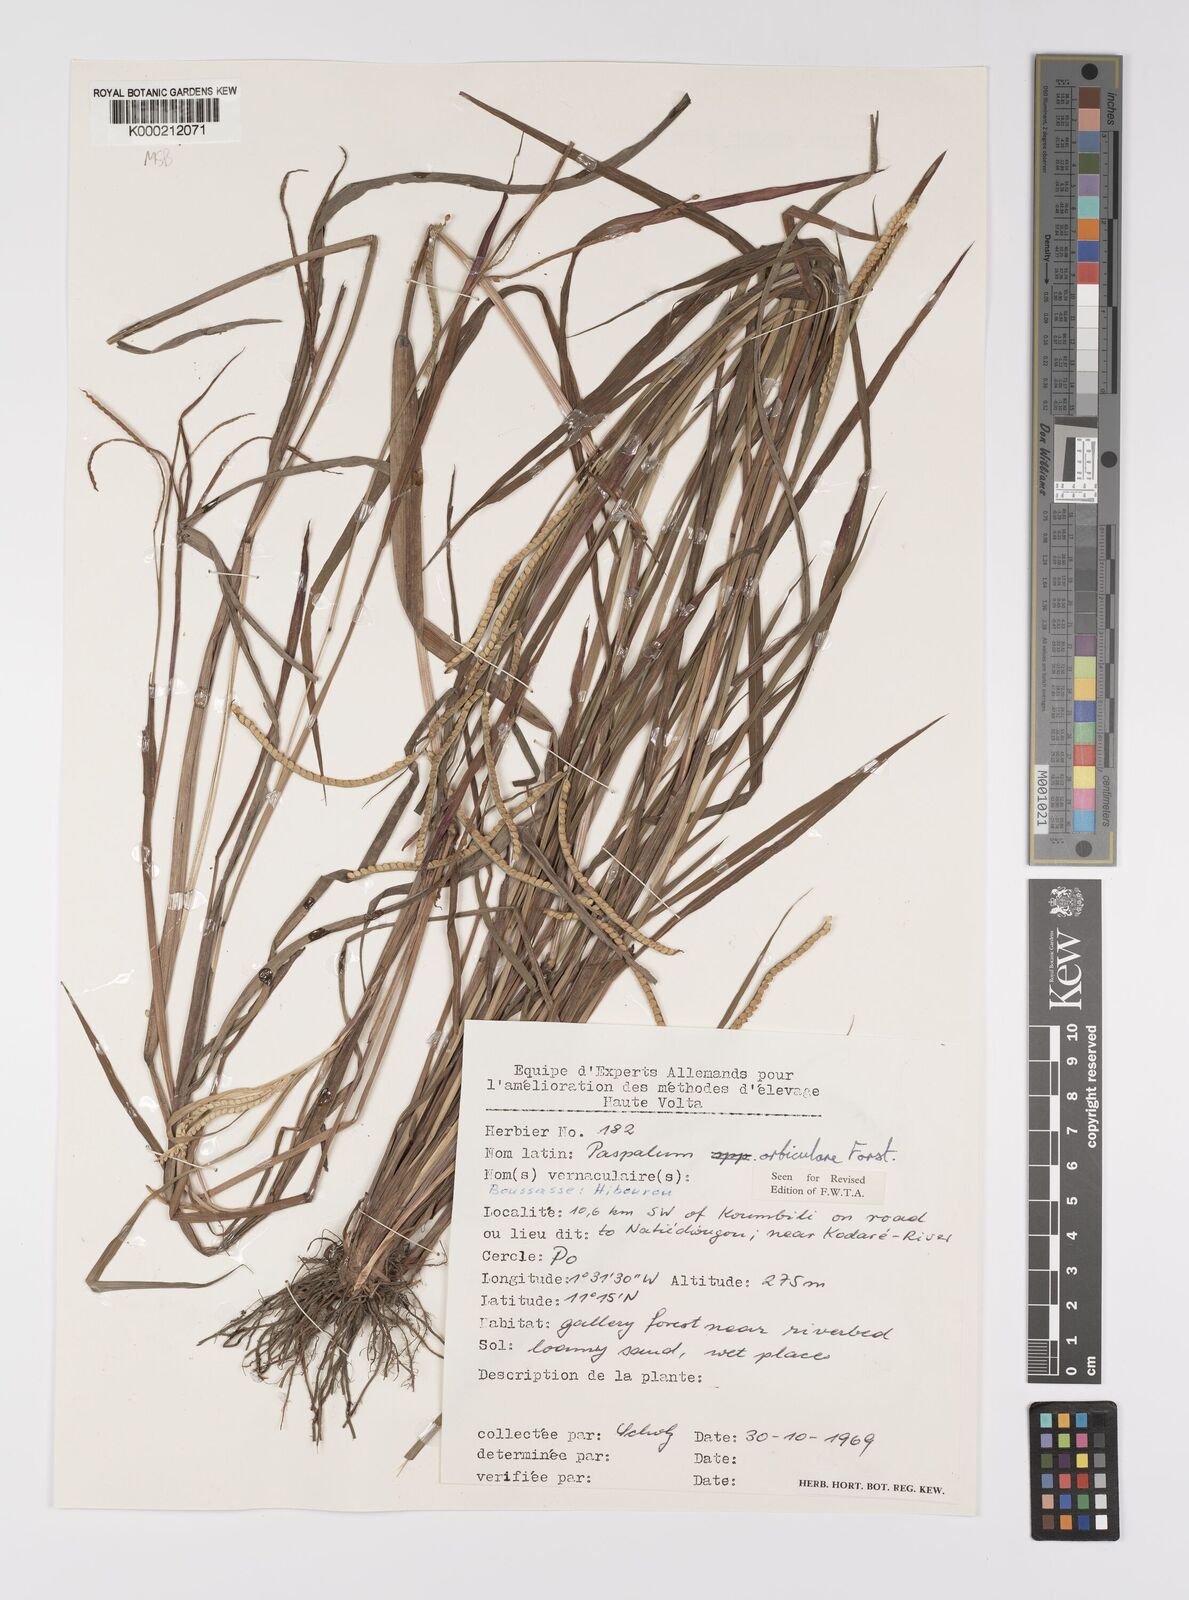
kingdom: Plantae
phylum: Tracheophyta
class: Liliopsida
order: Poales
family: Poaceae
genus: Paspalum
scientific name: Paspalum scrobiculatum
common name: Kodo millet
